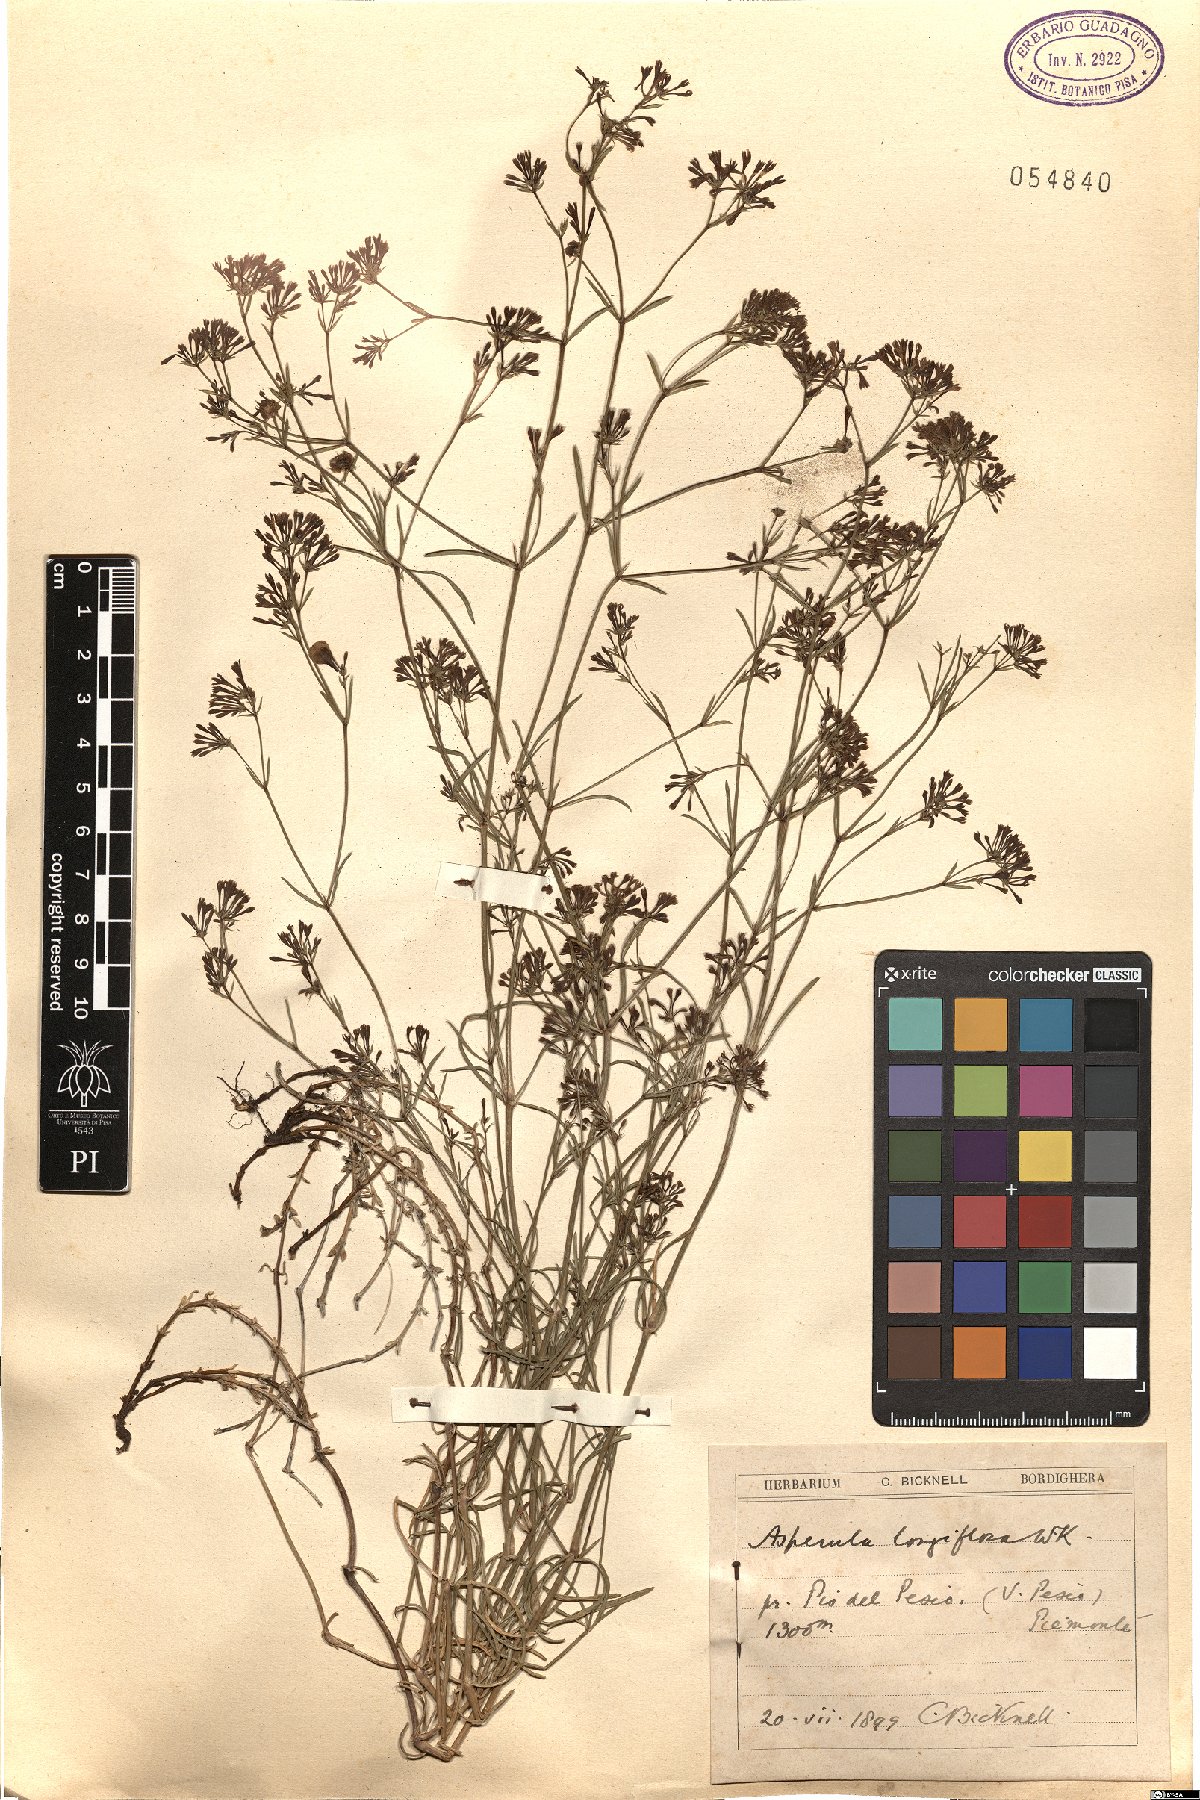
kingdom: Plantae
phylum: Tracheophyta
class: Magnoliopsida
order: Gentianales
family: Rubiaceae
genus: Cynanchica
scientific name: Cynanchica aristata
